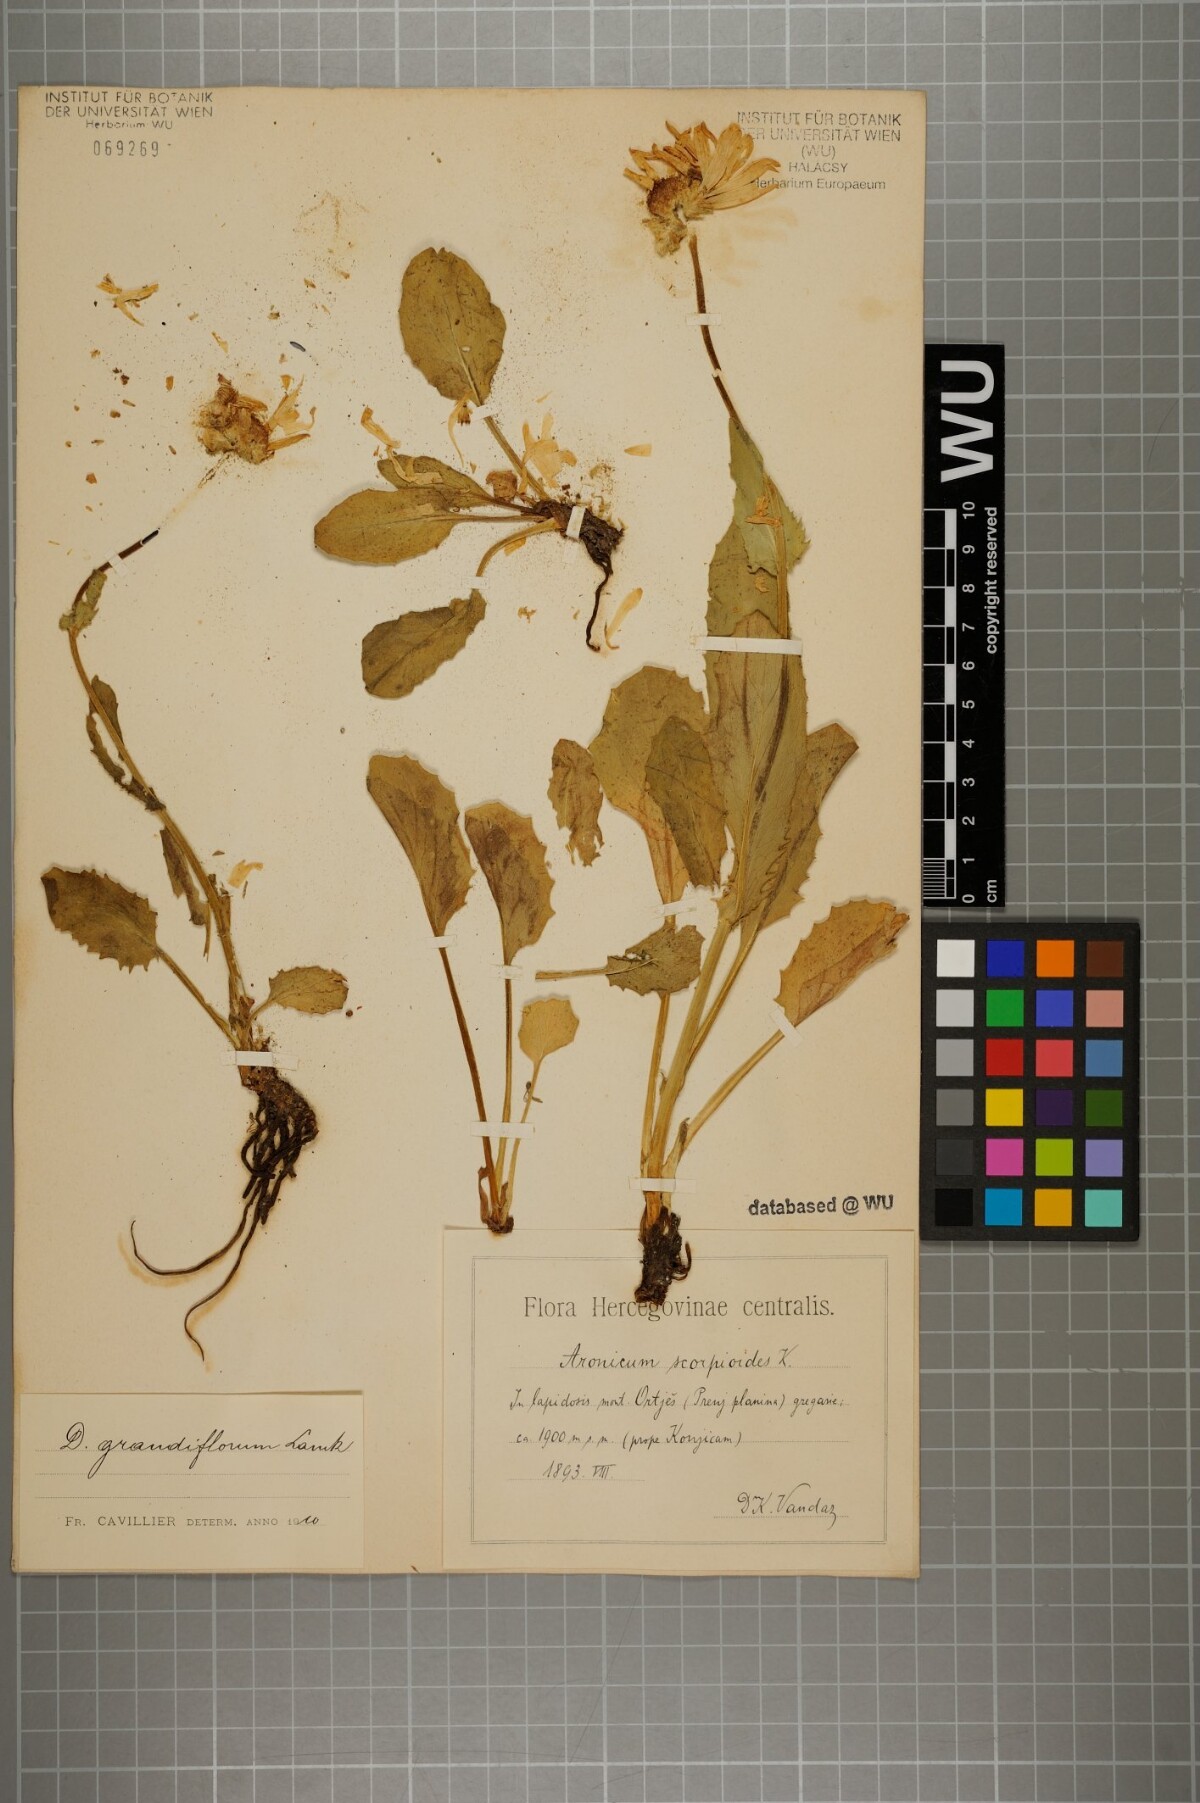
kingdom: Plantae
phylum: Tracheophyta
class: Magnoliopsida
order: Asterales
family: Asteraceae
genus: Doronicum
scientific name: Doronicum grandiflorum
